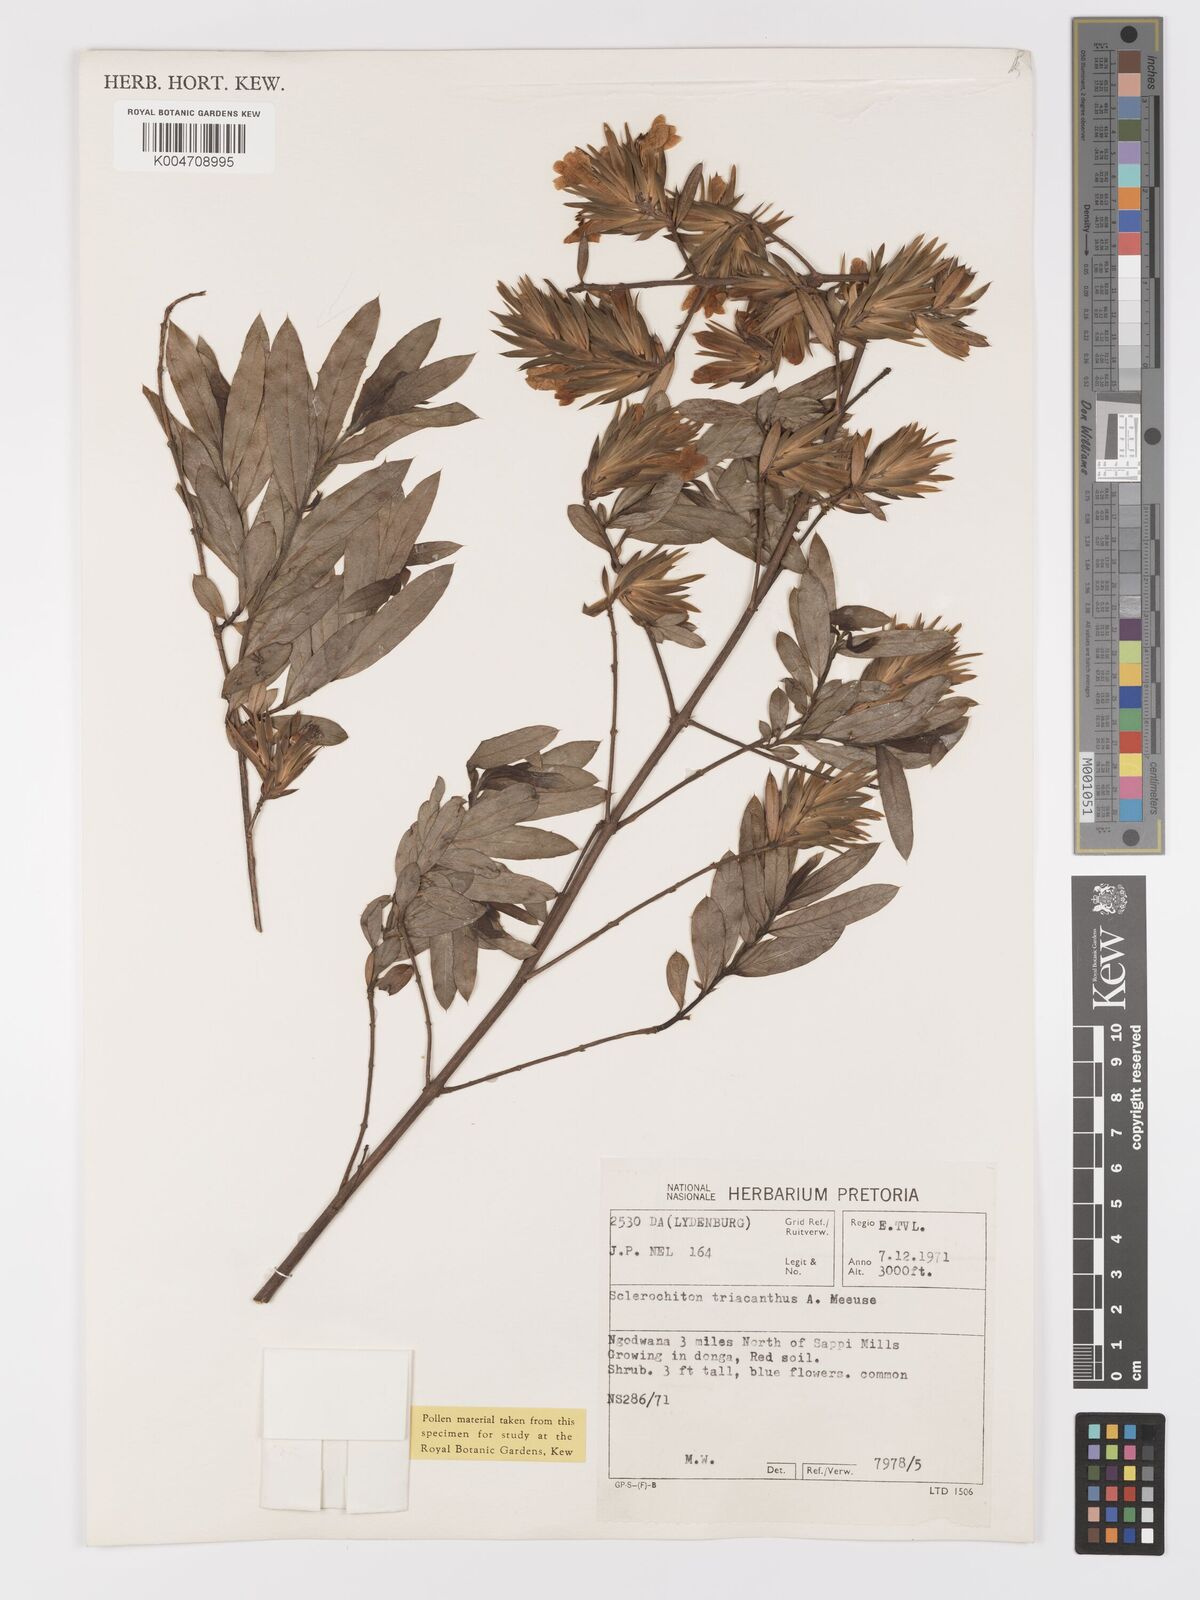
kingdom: Plantae
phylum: Tracheophyta
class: Magnoliopsida
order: Lamiales
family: Acanthaceae
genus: Sclerochiton
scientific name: Sclerochiton triacanthus
